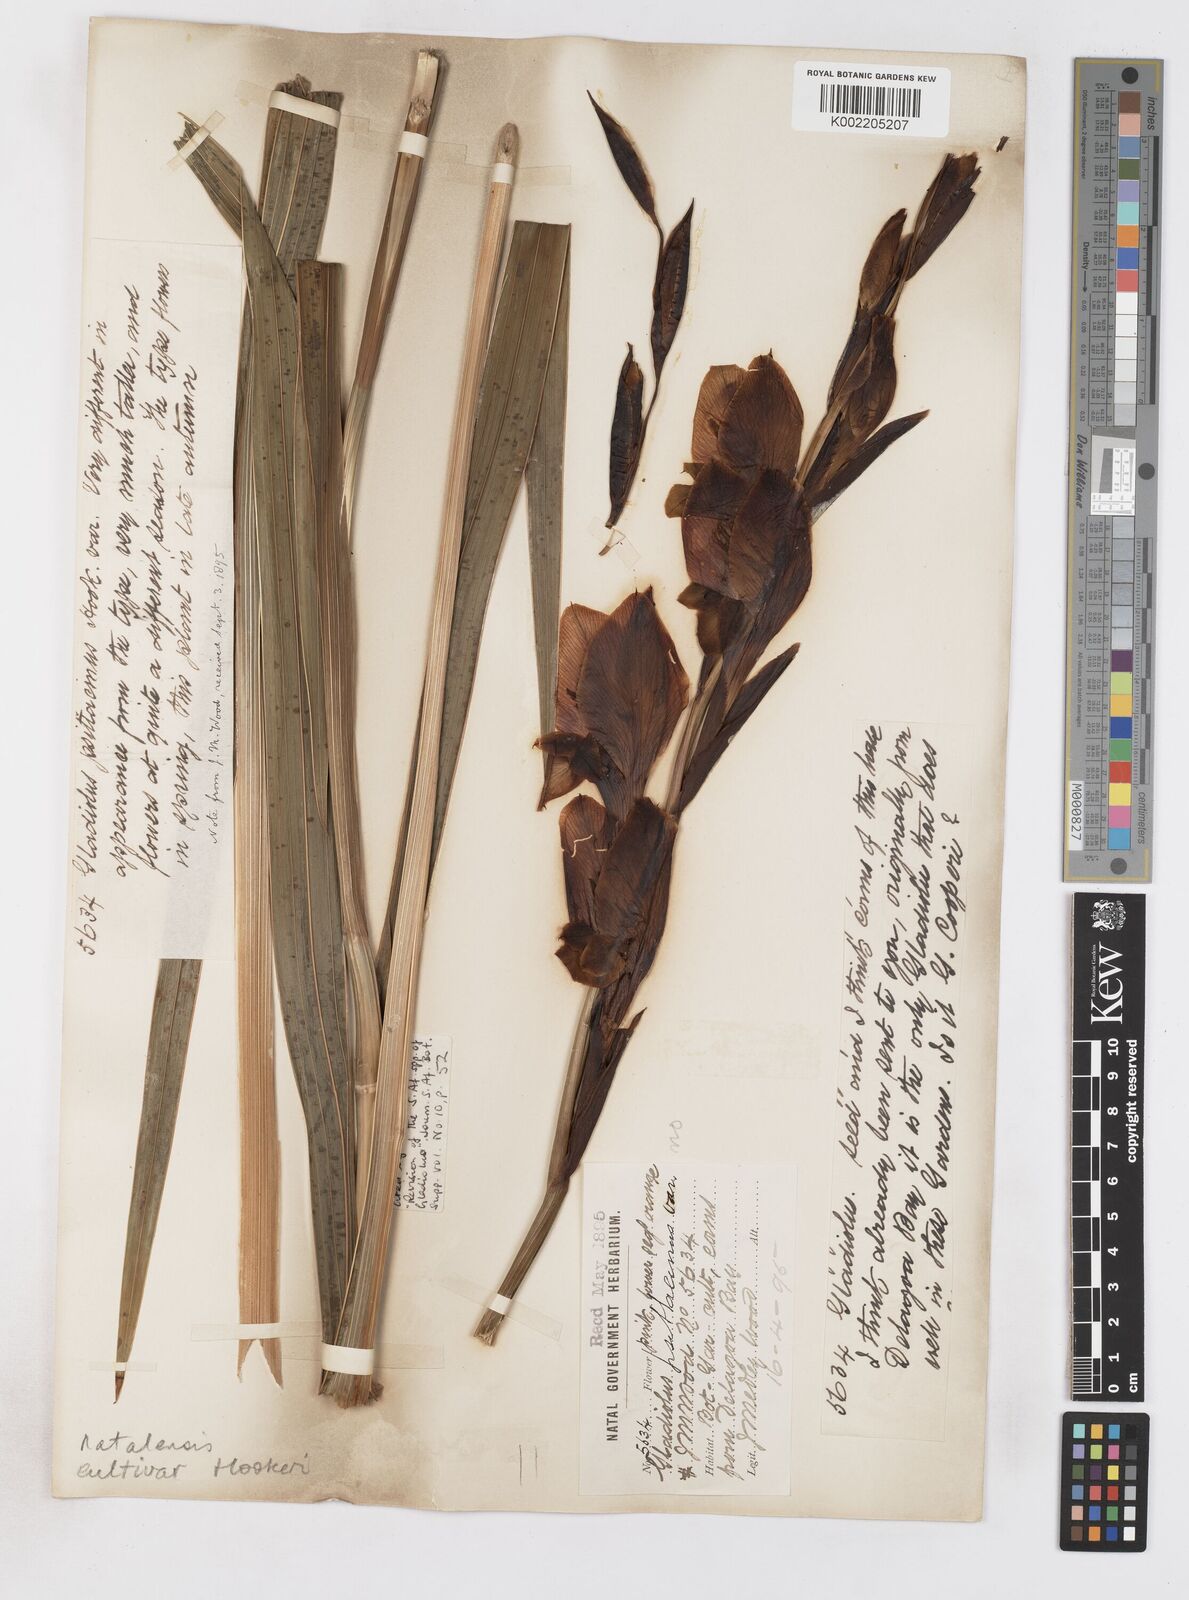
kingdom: Plantae
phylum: Tracheophyta
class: Liliopsida
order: Asparagales
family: Iridaceae
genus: Gladiolus
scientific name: Gladiolus dalenii
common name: Cornflag
